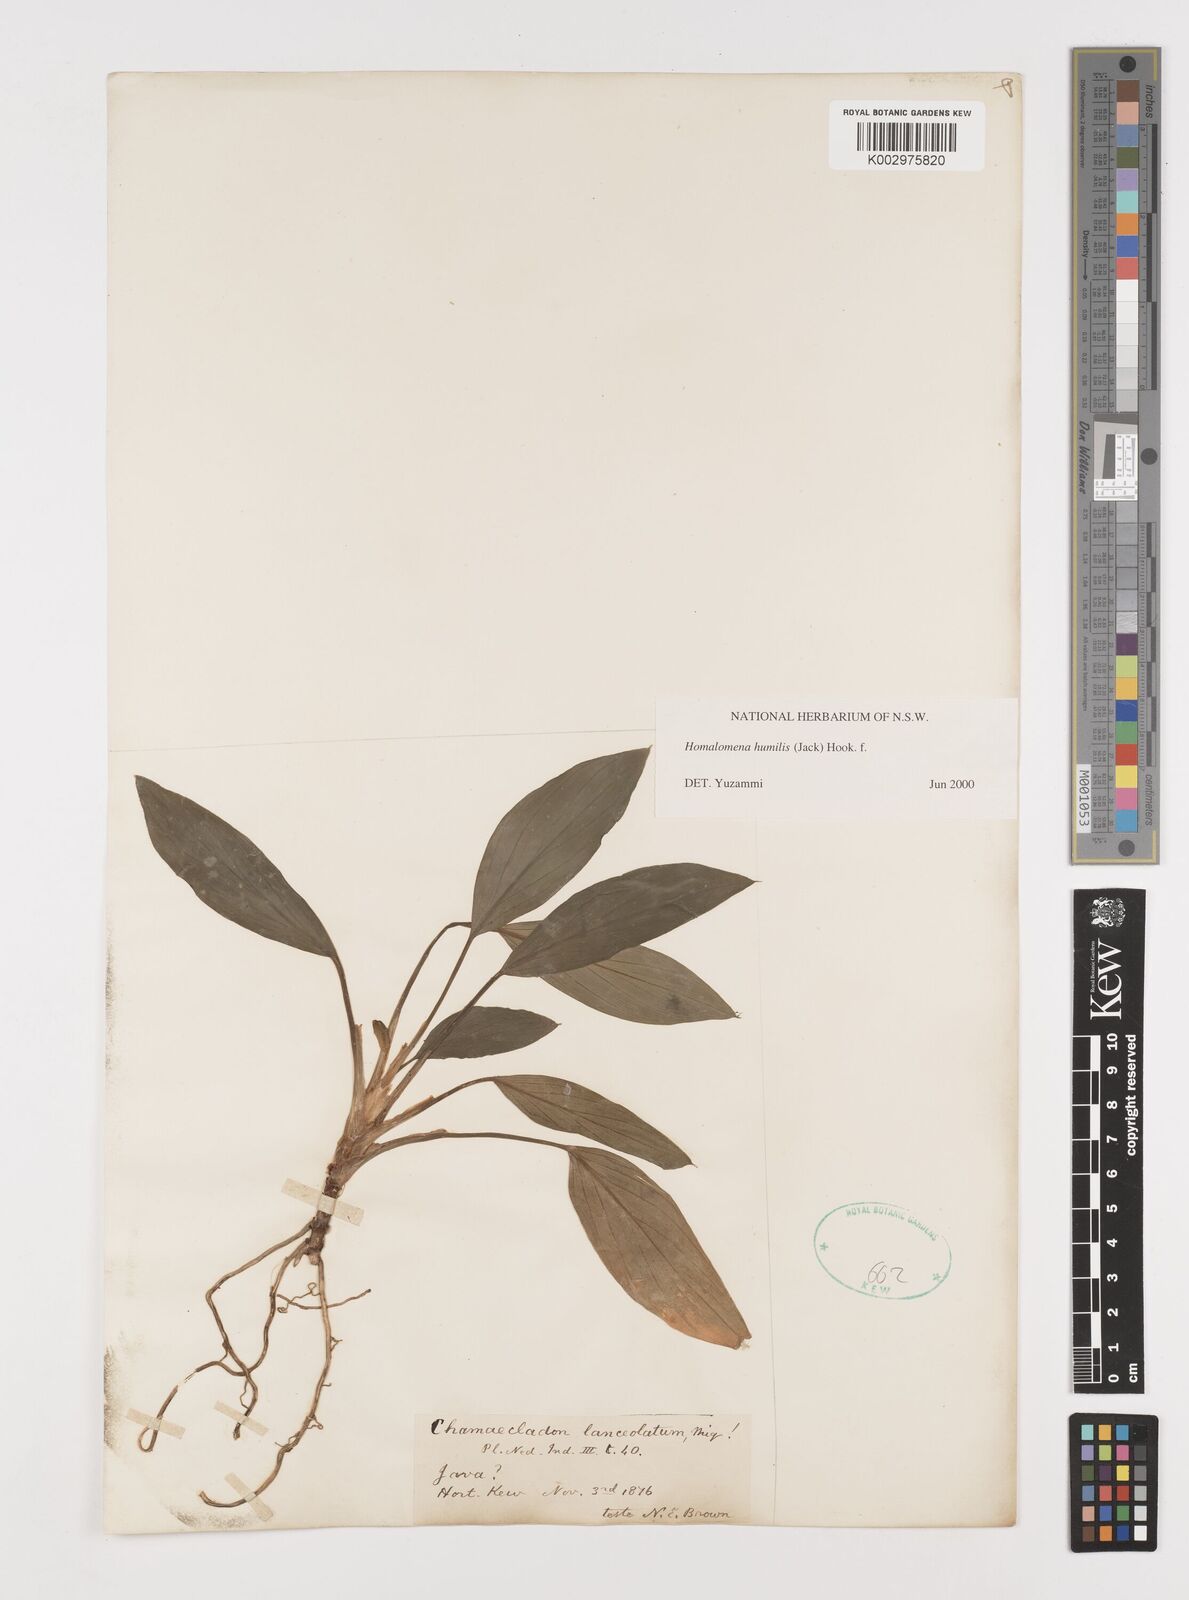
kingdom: Plantae
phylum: Tracheophyta
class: Liliopsida
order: Alismatales
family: Araceae
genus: Homalomena
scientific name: Homalomena humilis
